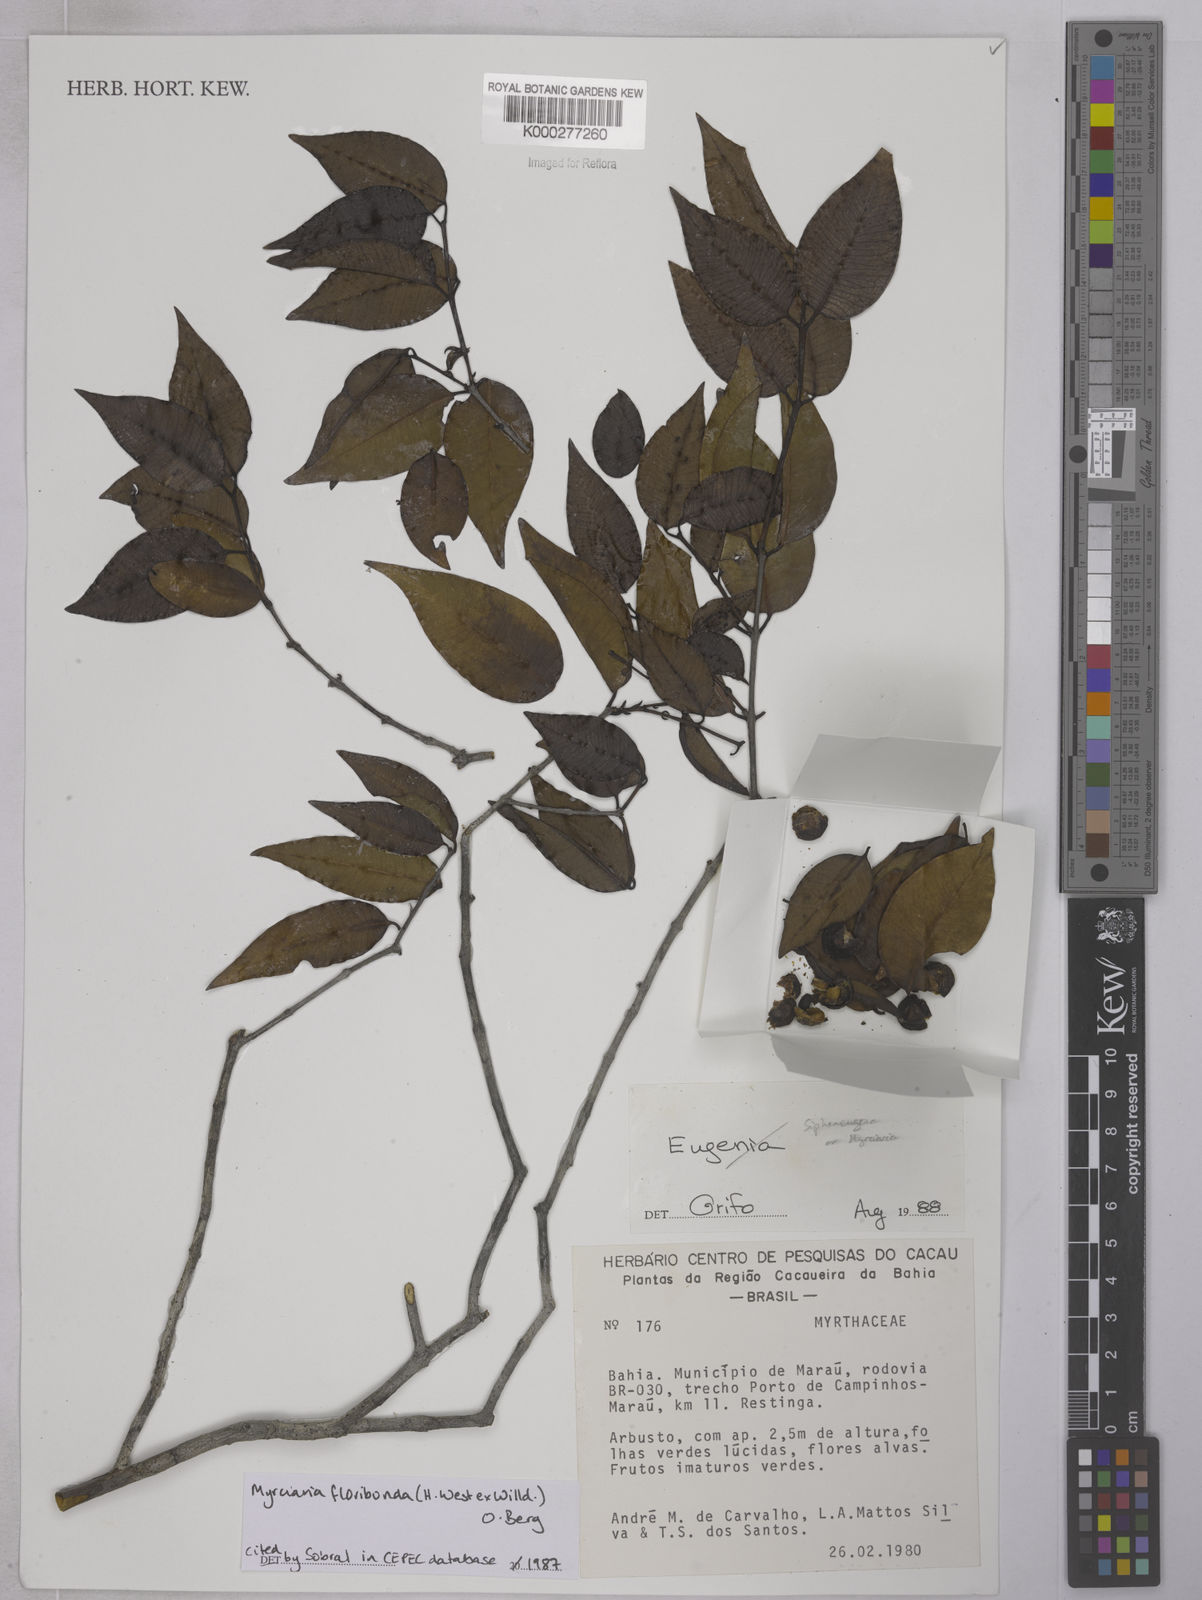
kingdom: Plantae
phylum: Tracheophyta
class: Magnoliopsida
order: Myrtales
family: Myrtaceae
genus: Myrciaria
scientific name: Myrciaria floribunda
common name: Guavaberry
